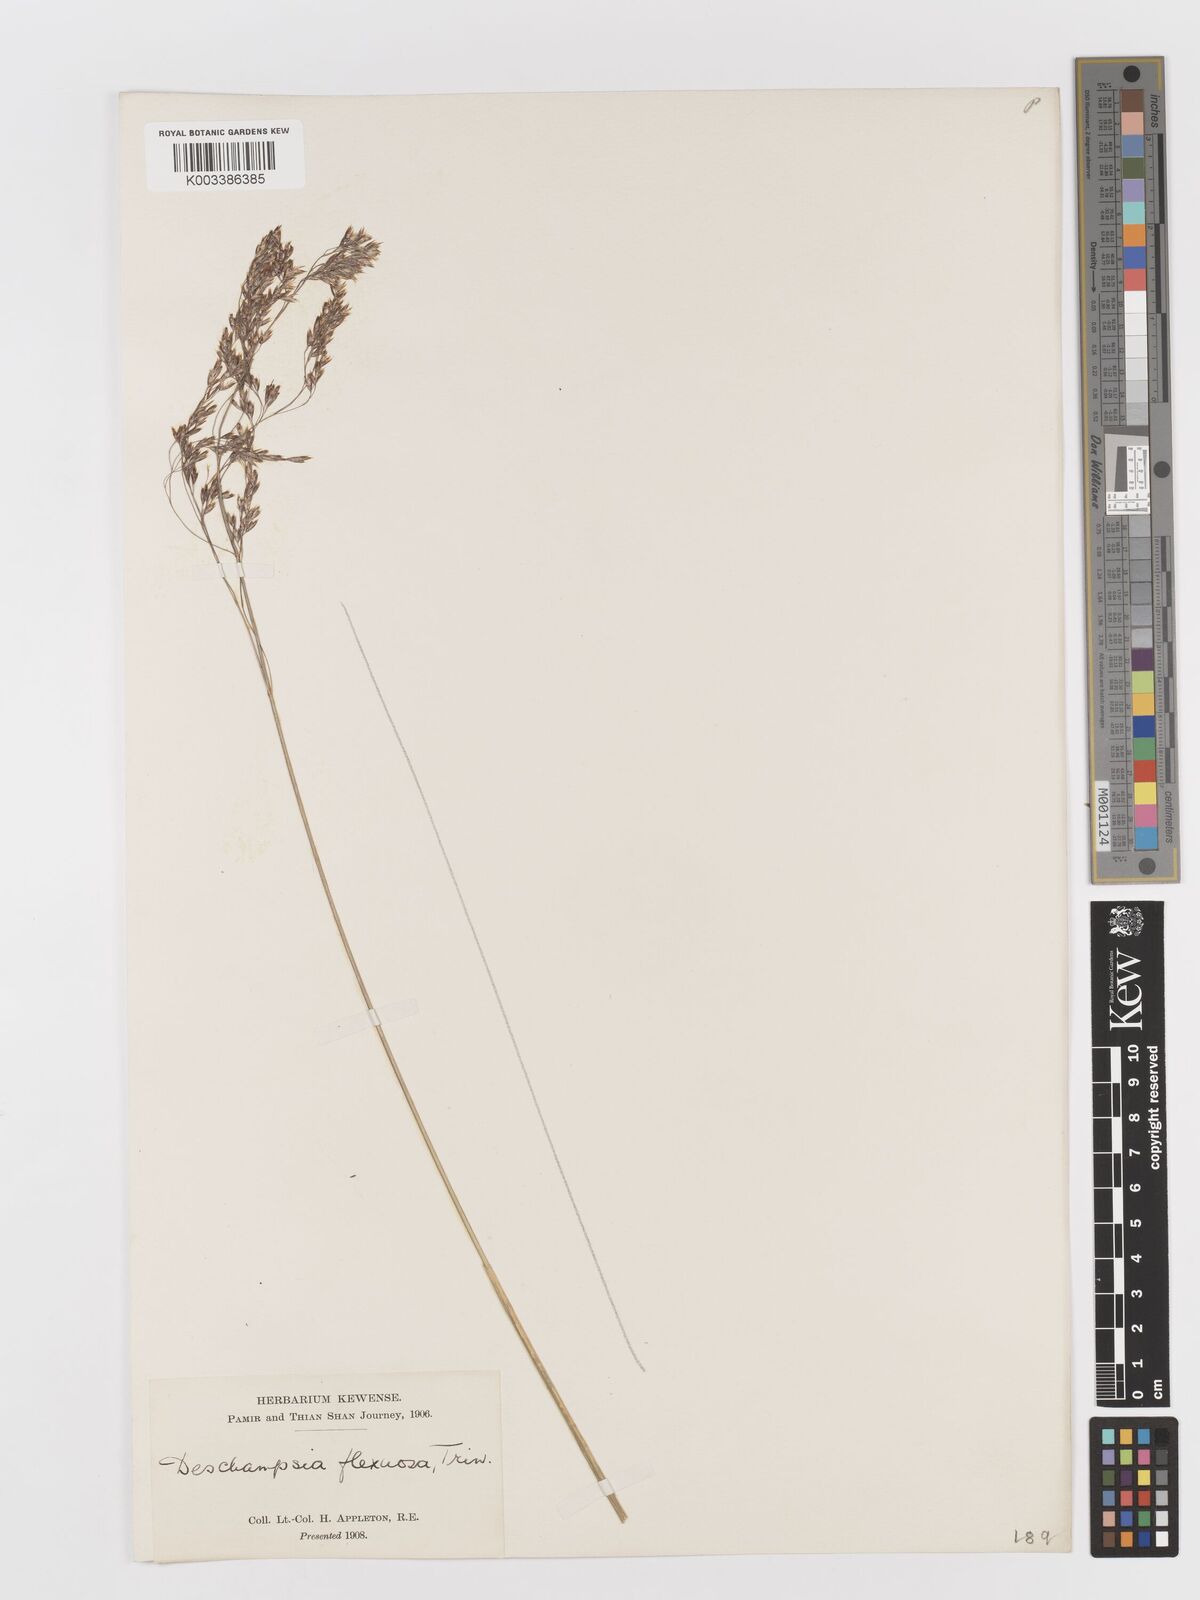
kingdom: Plantae
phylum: Tracheophyta
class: Liliopsida
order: Poales
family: Poaceae
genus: Avenella
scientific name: Avenella flexuosa
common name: Wavy hairgrass
